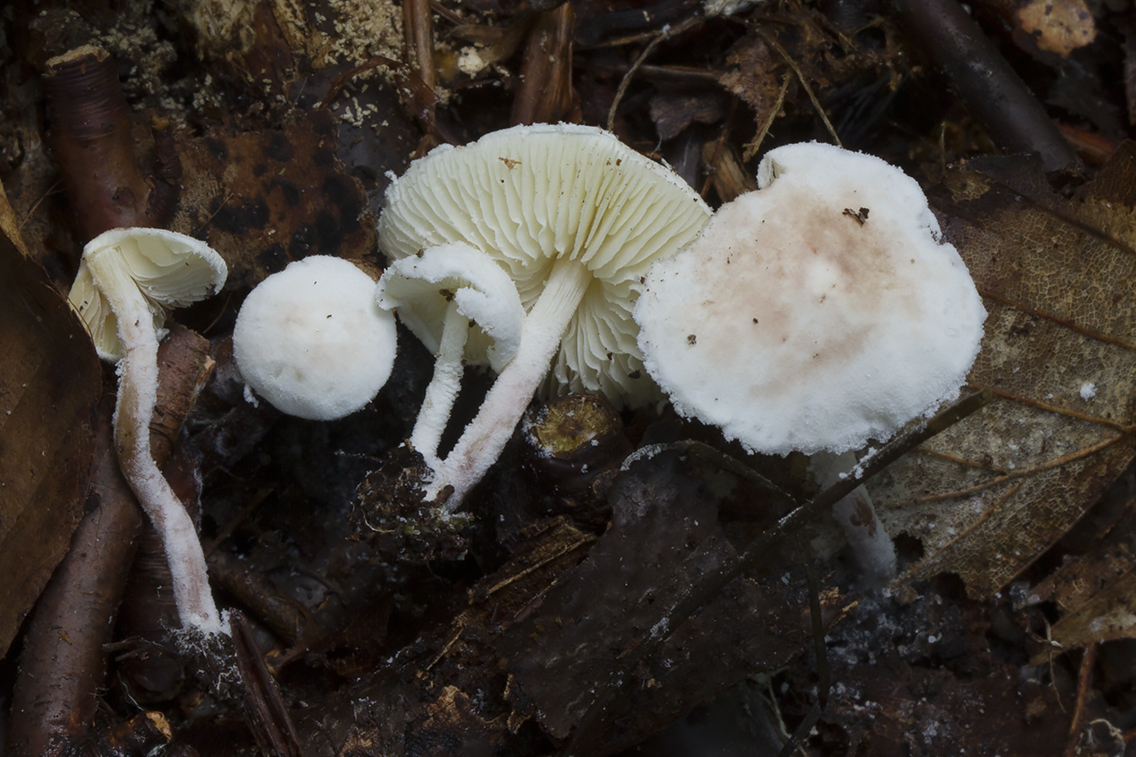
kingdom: Fungi
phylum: Basidiomycota
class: Agaricomycetes
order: Agaricales
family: Agaricaceae
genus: Cystolepiota
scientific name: Cystolepiota seminuda
